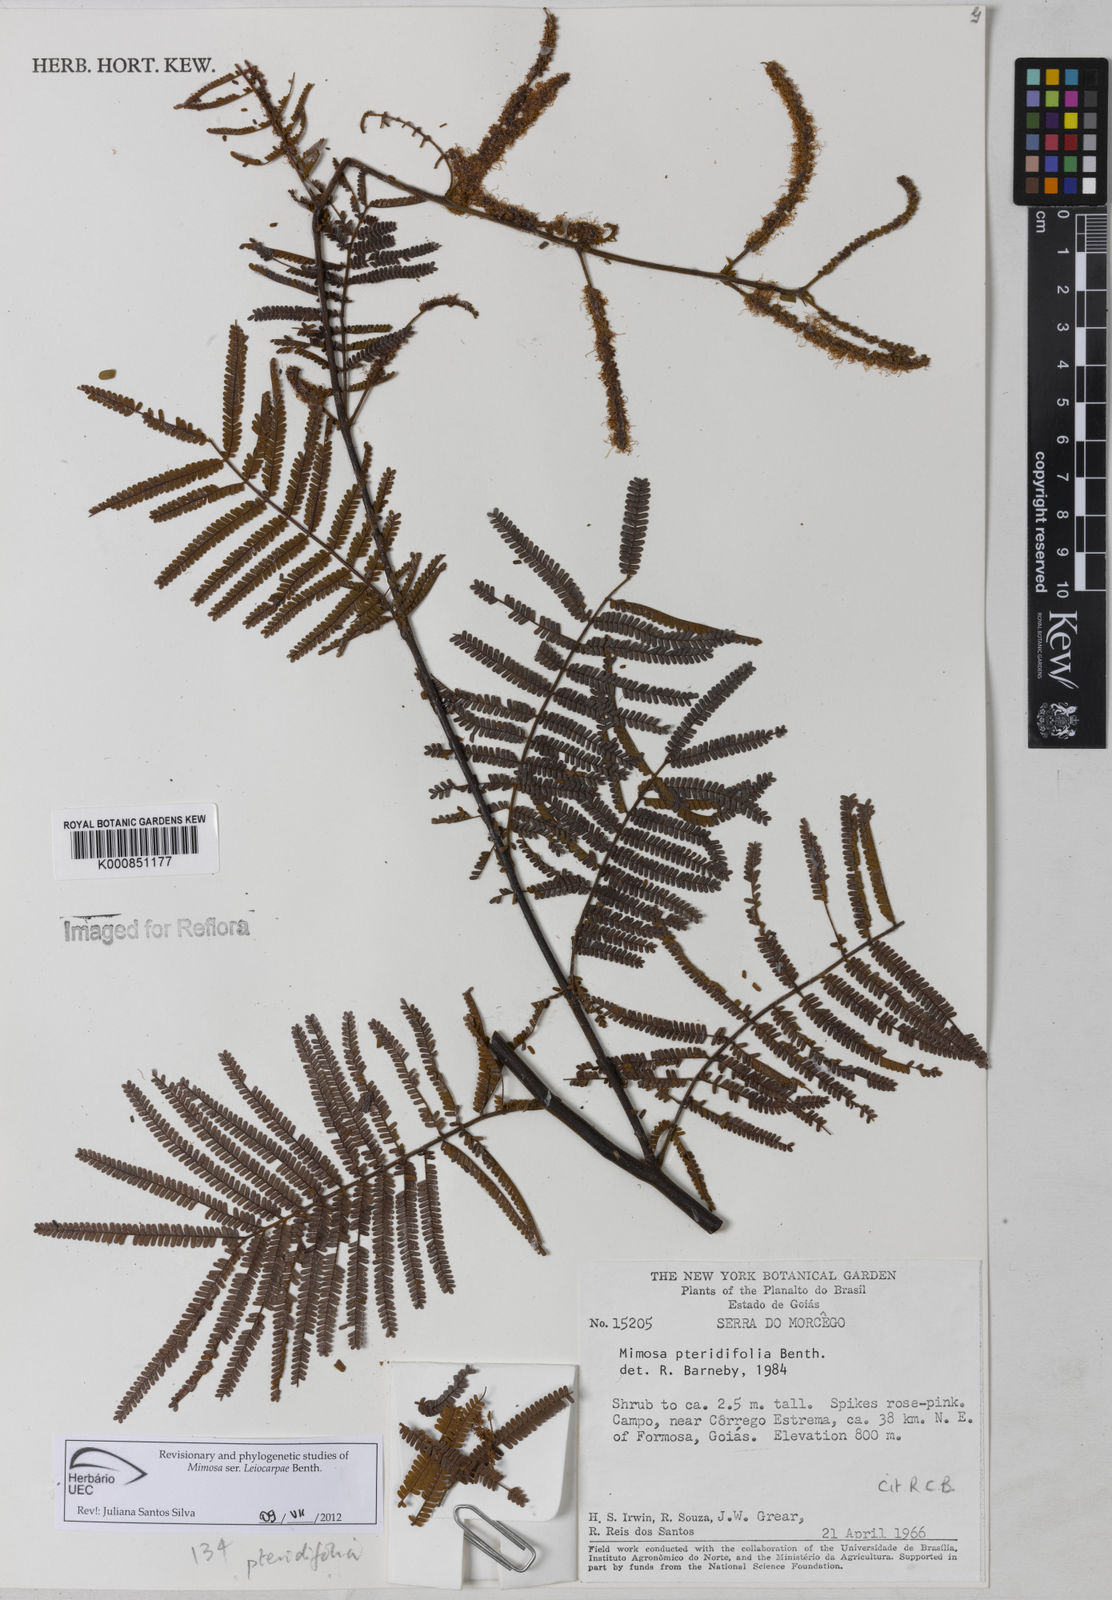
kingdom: Plantae
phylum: Tracheophyta
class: Magnoliopsida
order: Fabales
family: Fabaceae
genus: Mimosa
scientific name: Mimosa pteridifolia
